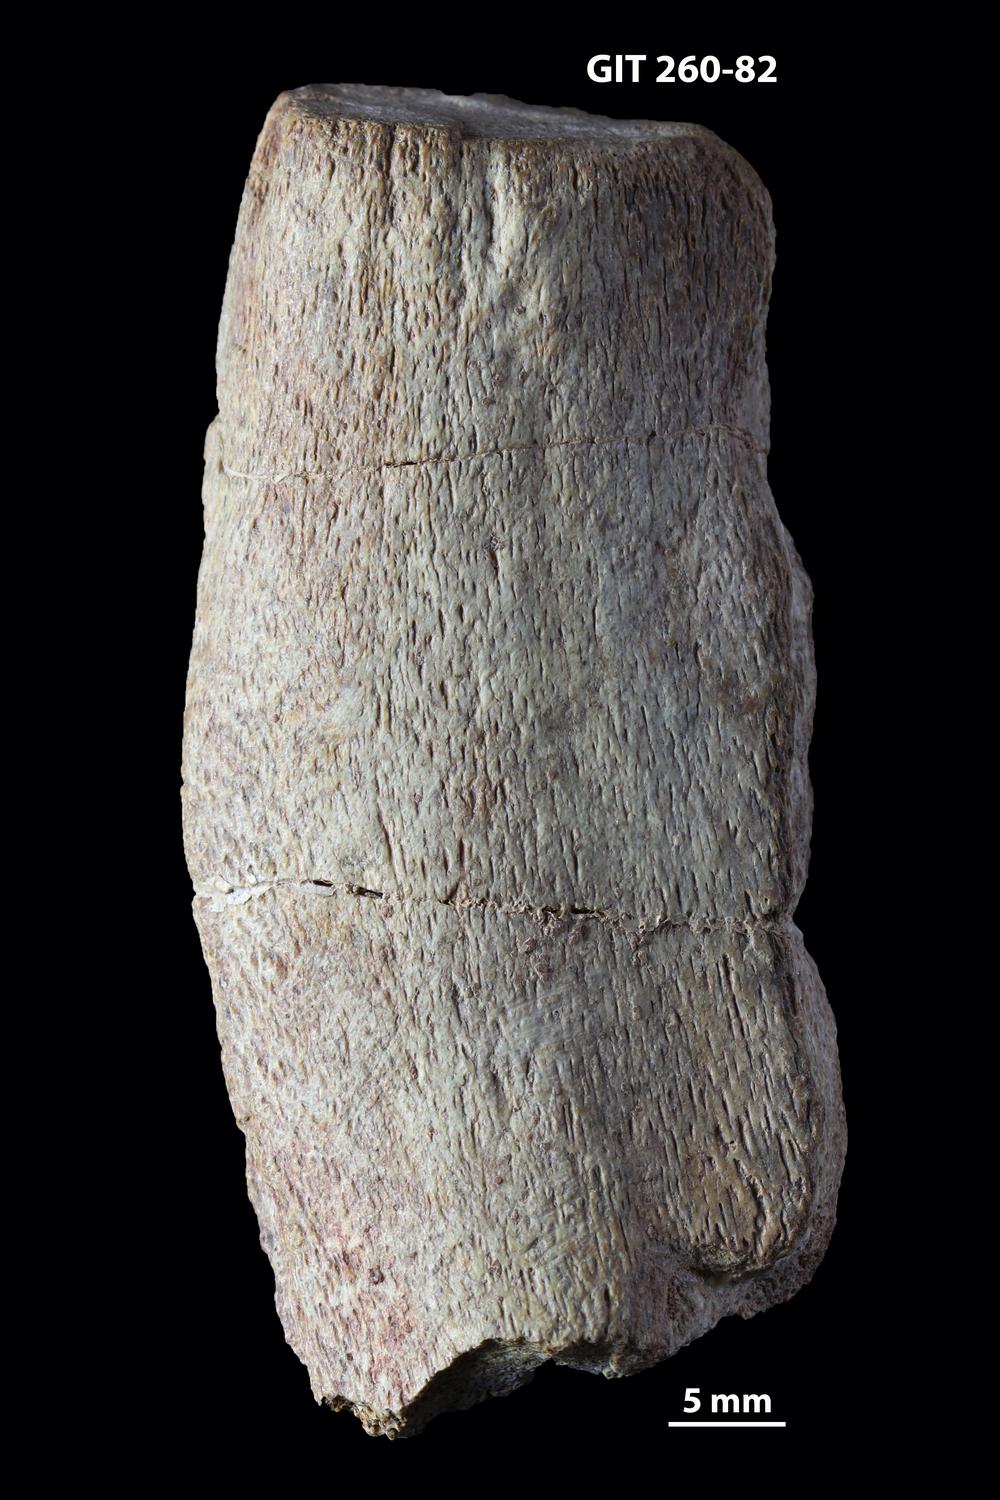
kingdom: Animalia
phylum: Chordata
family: Homostiidae
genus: Homostius
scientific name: Homostius
